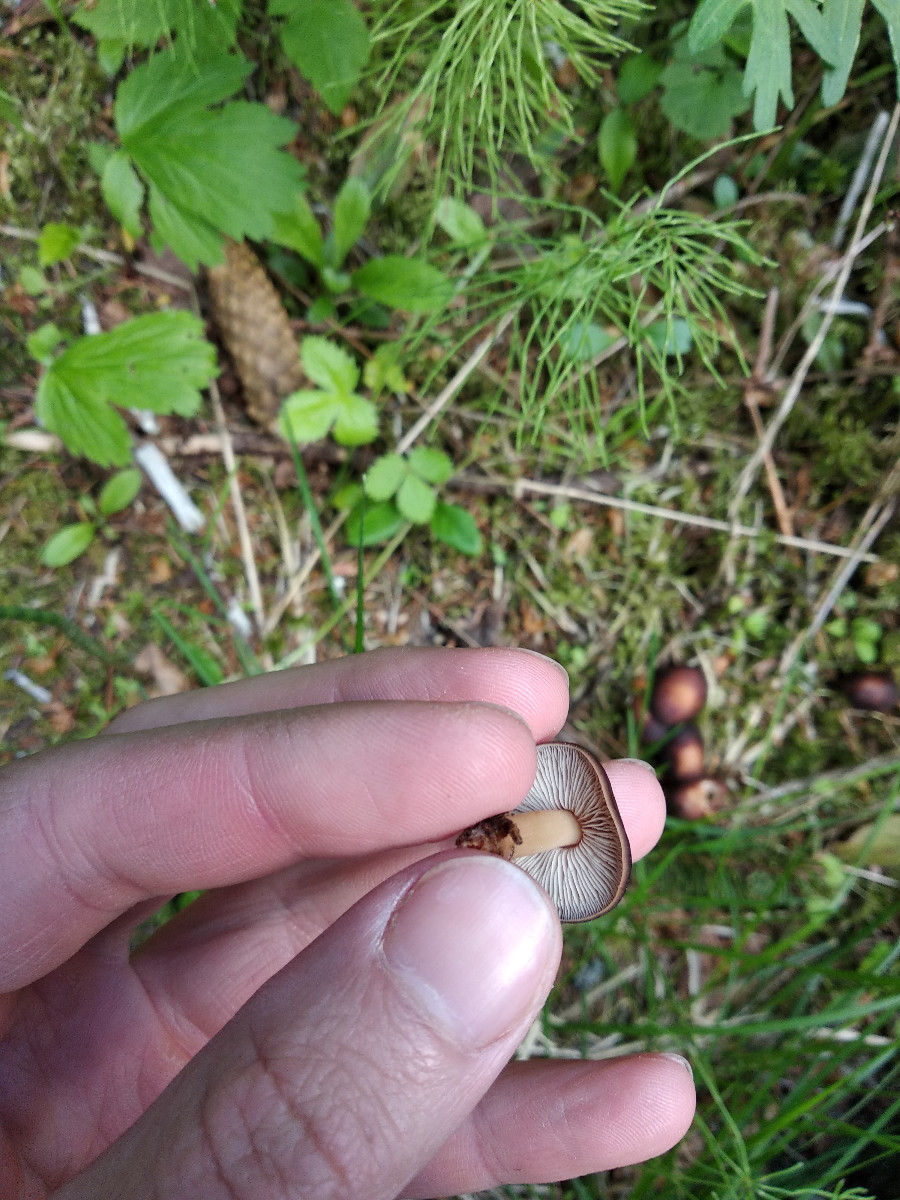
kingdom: Fungi
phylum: Basidiomycota
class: Agaricomycetes
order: Agaricales
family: Omphalotaceae
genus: Gymnopus
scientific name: Gymnopus
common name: fladhat
